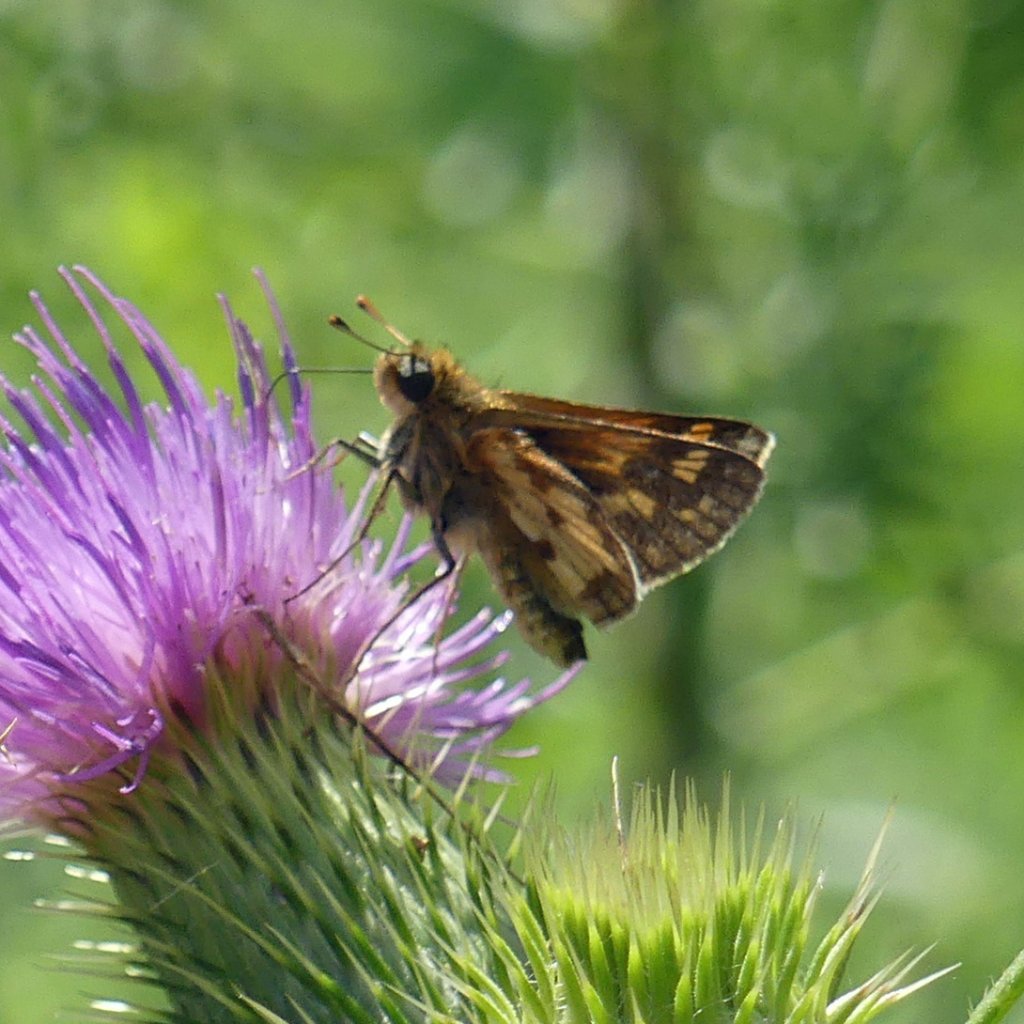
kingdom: Animalia
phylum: Arthropoda
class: Insecta
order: Lepidoptera
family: Hesperiidae
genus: Polites
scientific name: Polites coras
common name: Peck's Skipper
